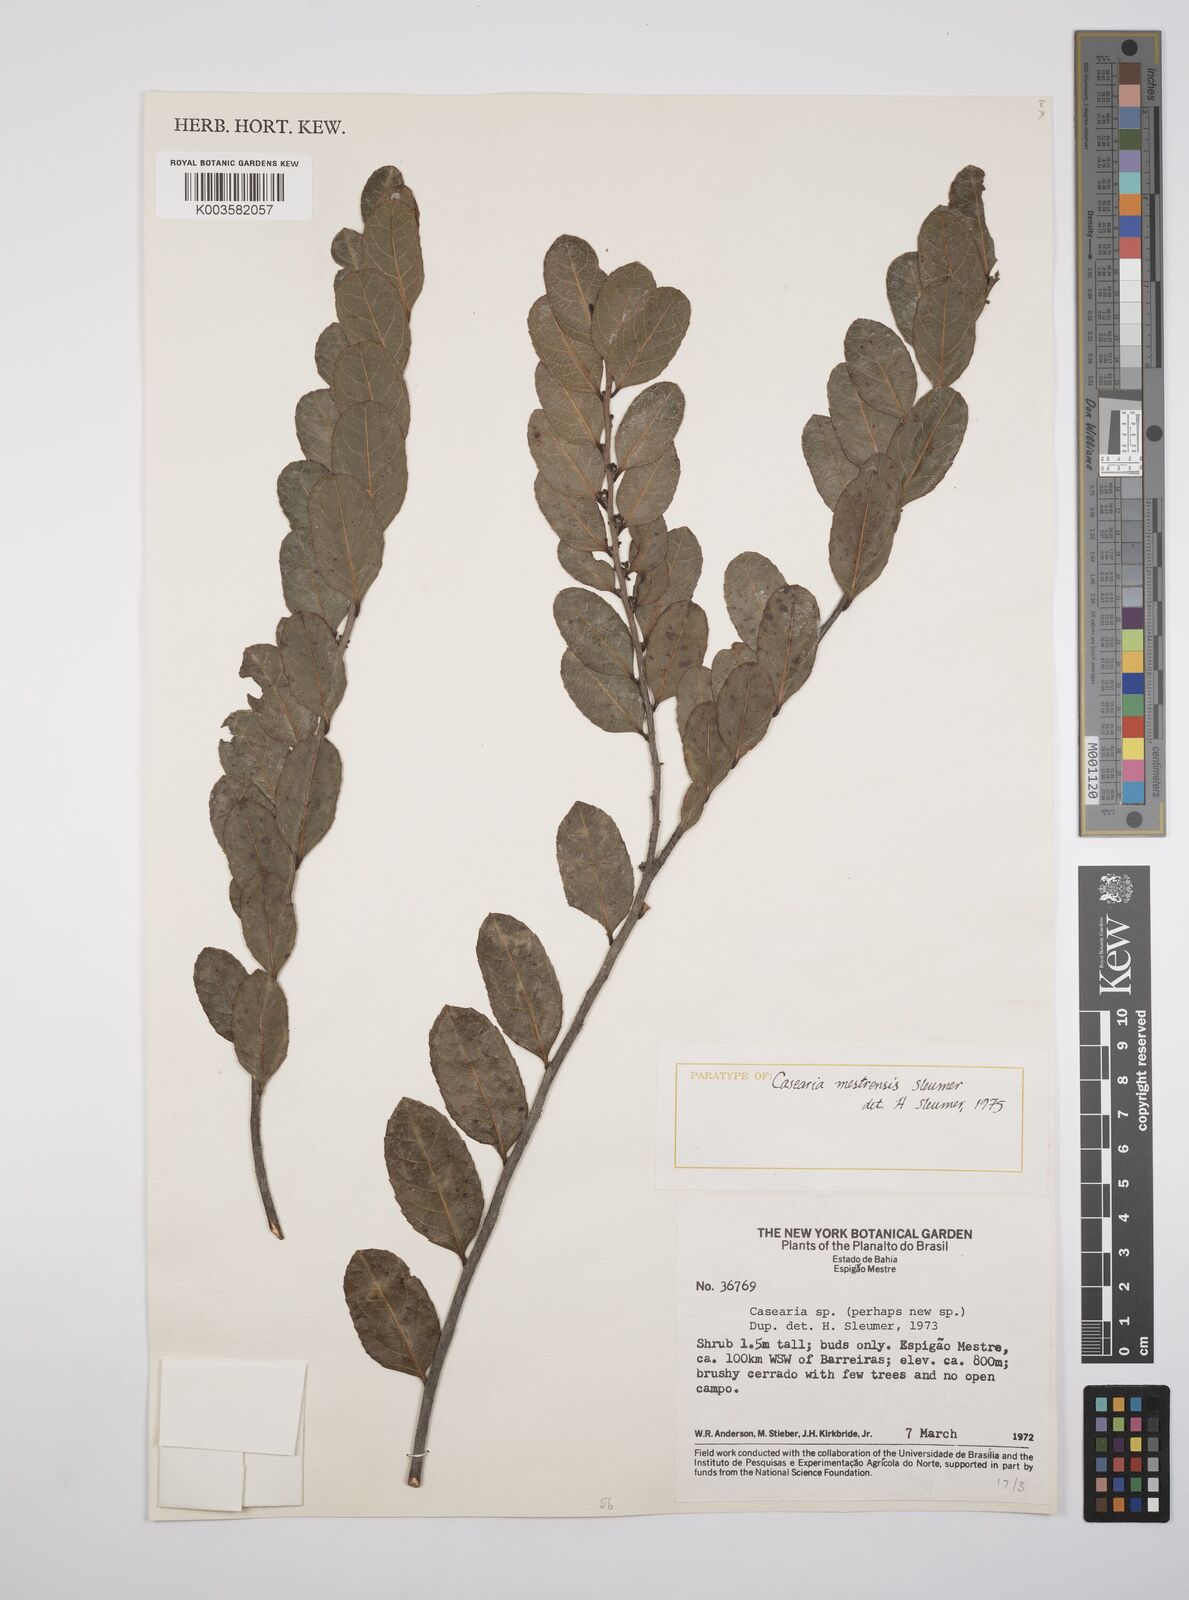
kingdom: Plantae
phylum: Tracheophyta
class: Magnoliopsida
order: Malpighiales
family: Salicaceae
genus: Casearia
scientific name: Casearia mestrensis
